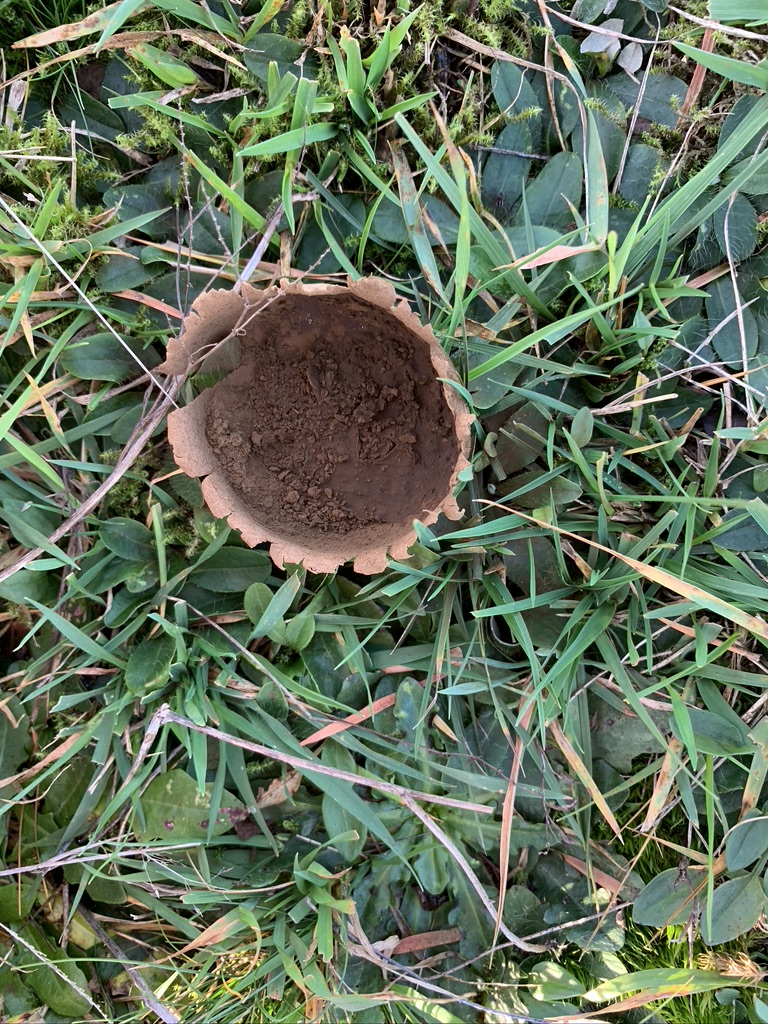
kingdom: Fungi
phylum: Basidiomycota
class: Agaricomycetes
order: Agaricales
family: Lycoperdaceae
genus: Bovistella
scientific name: Bovistella utriformis
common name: skællet støvbold
